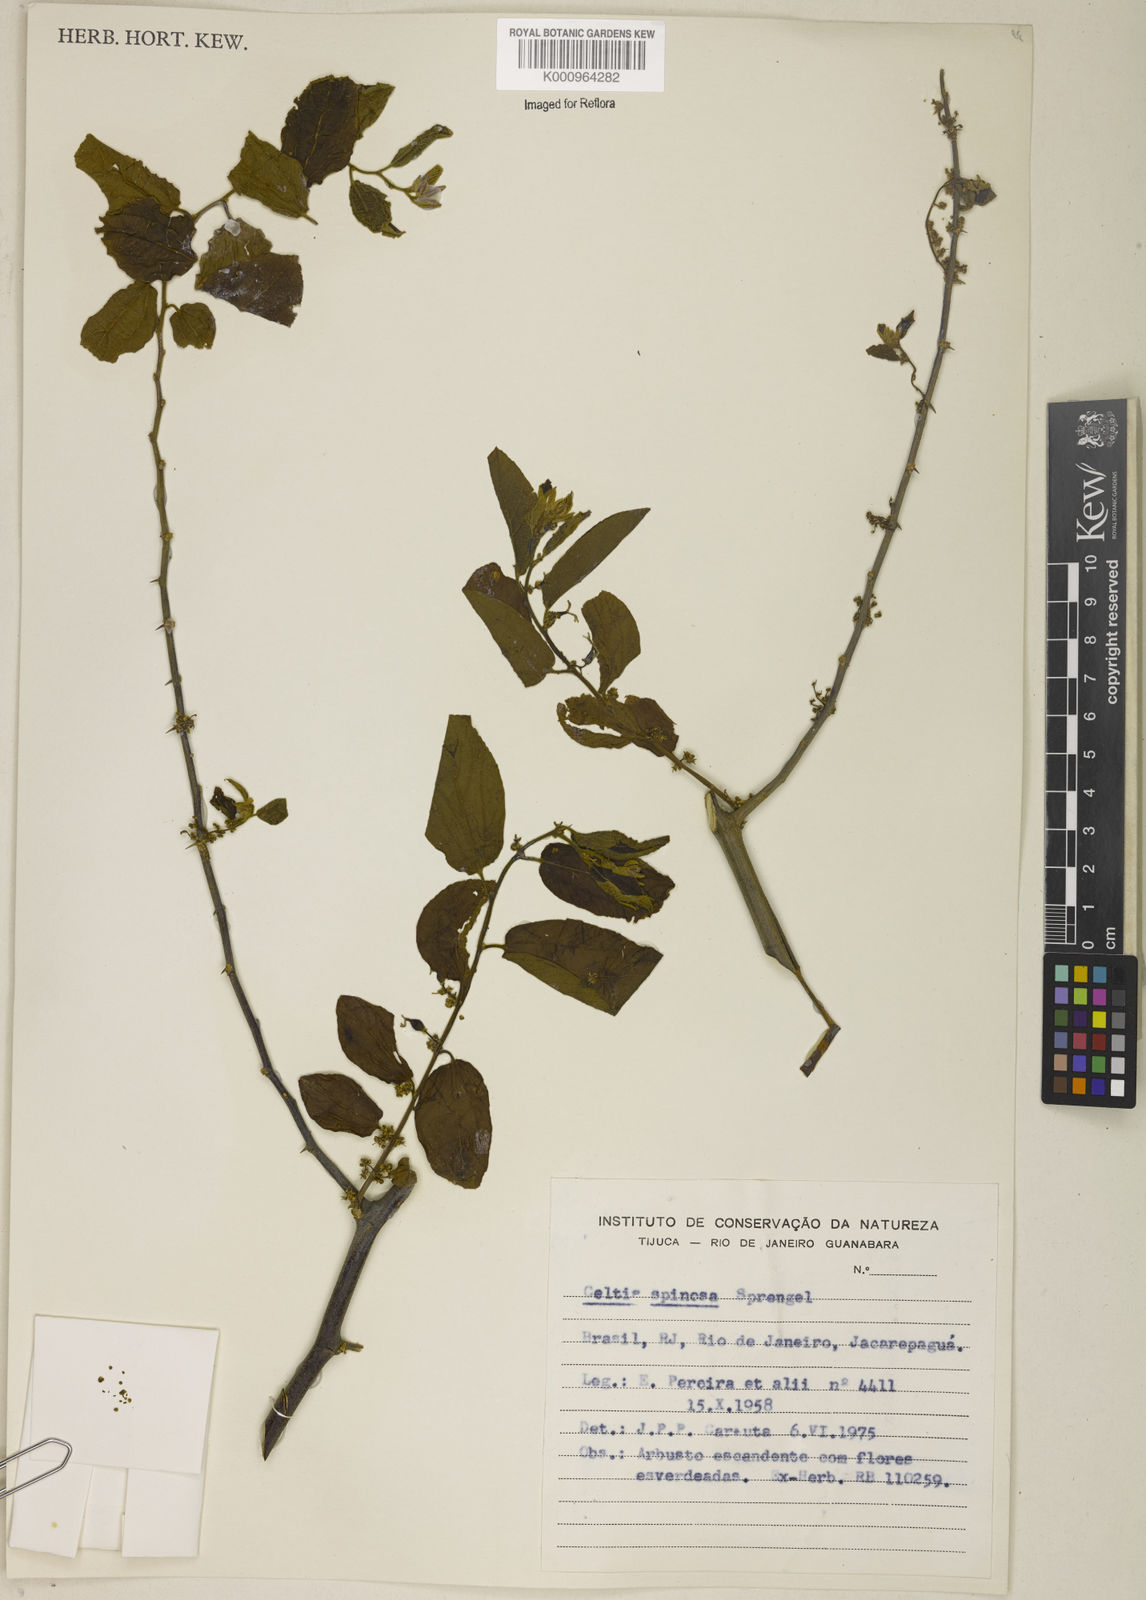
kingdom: Plantae
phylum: Tracheophyta
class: Magnoliopsida
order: Rosales
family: Cannabaceae
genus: Celtis
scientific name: Celtis spinosa
